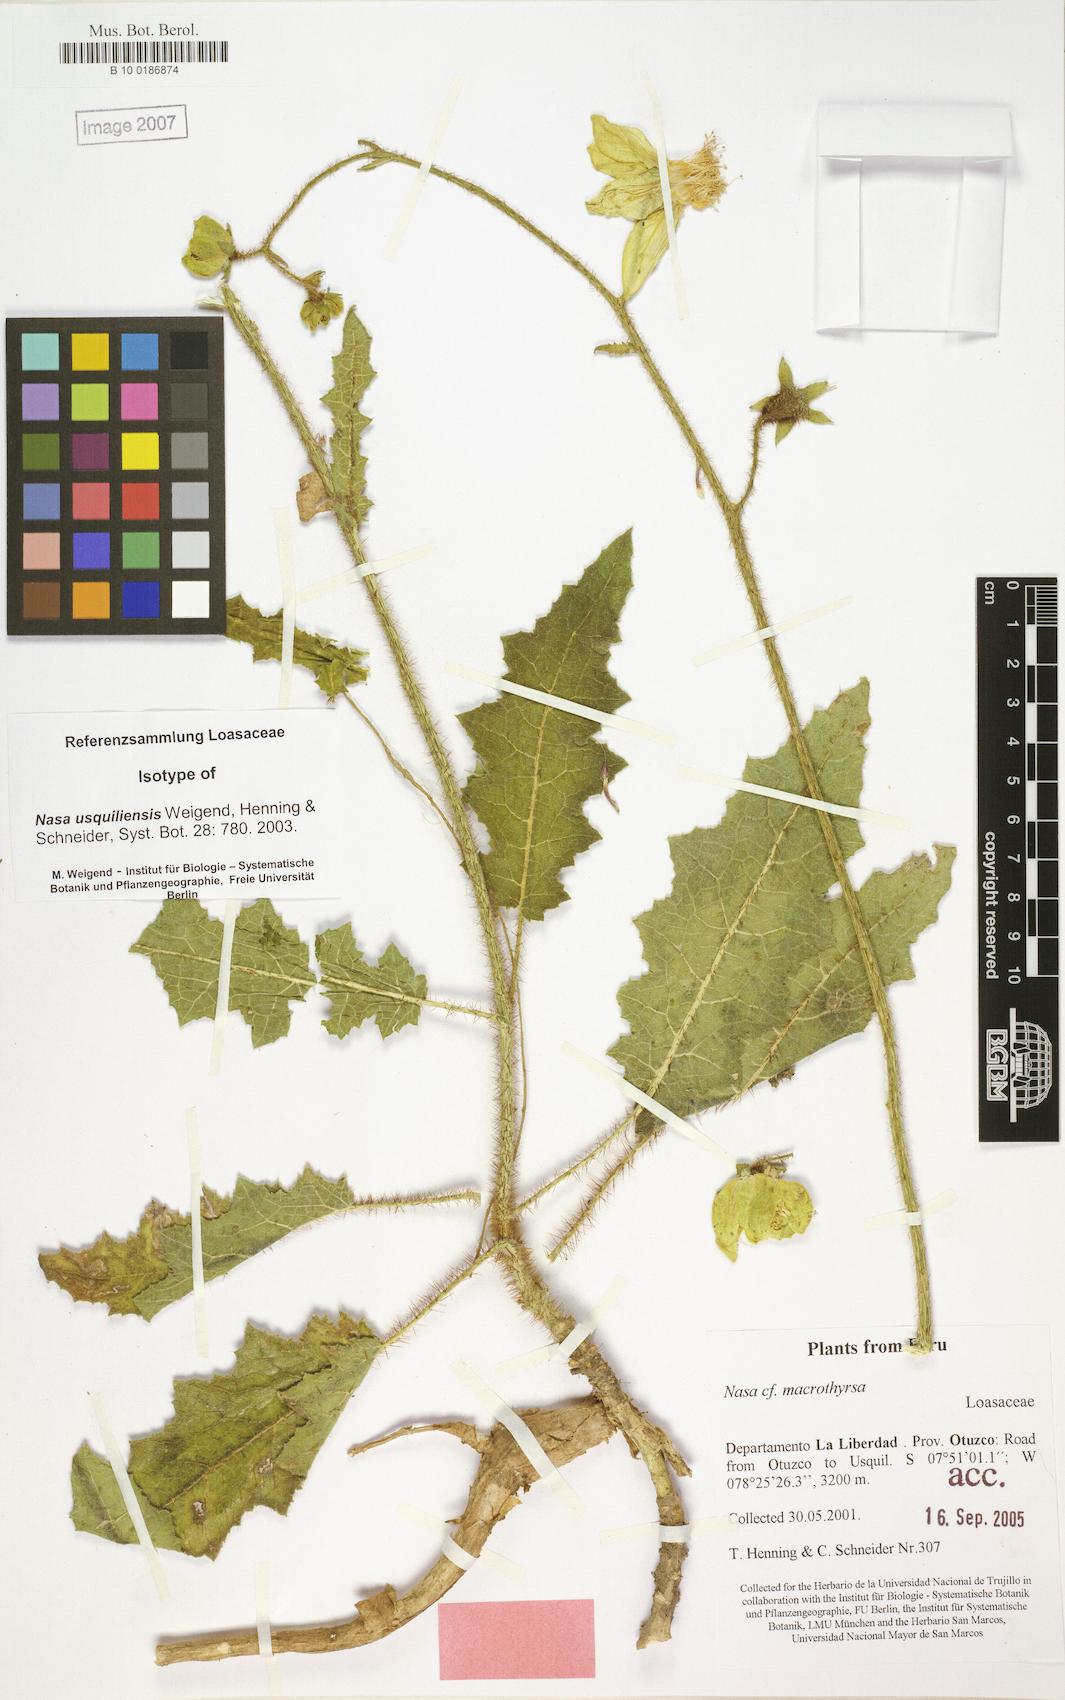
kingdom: Plantae
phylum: Tracheophyta
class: Magnoliopsida
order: Cornales
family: Loasaceae
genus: Nasa
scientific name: Nasa usquiliensis
